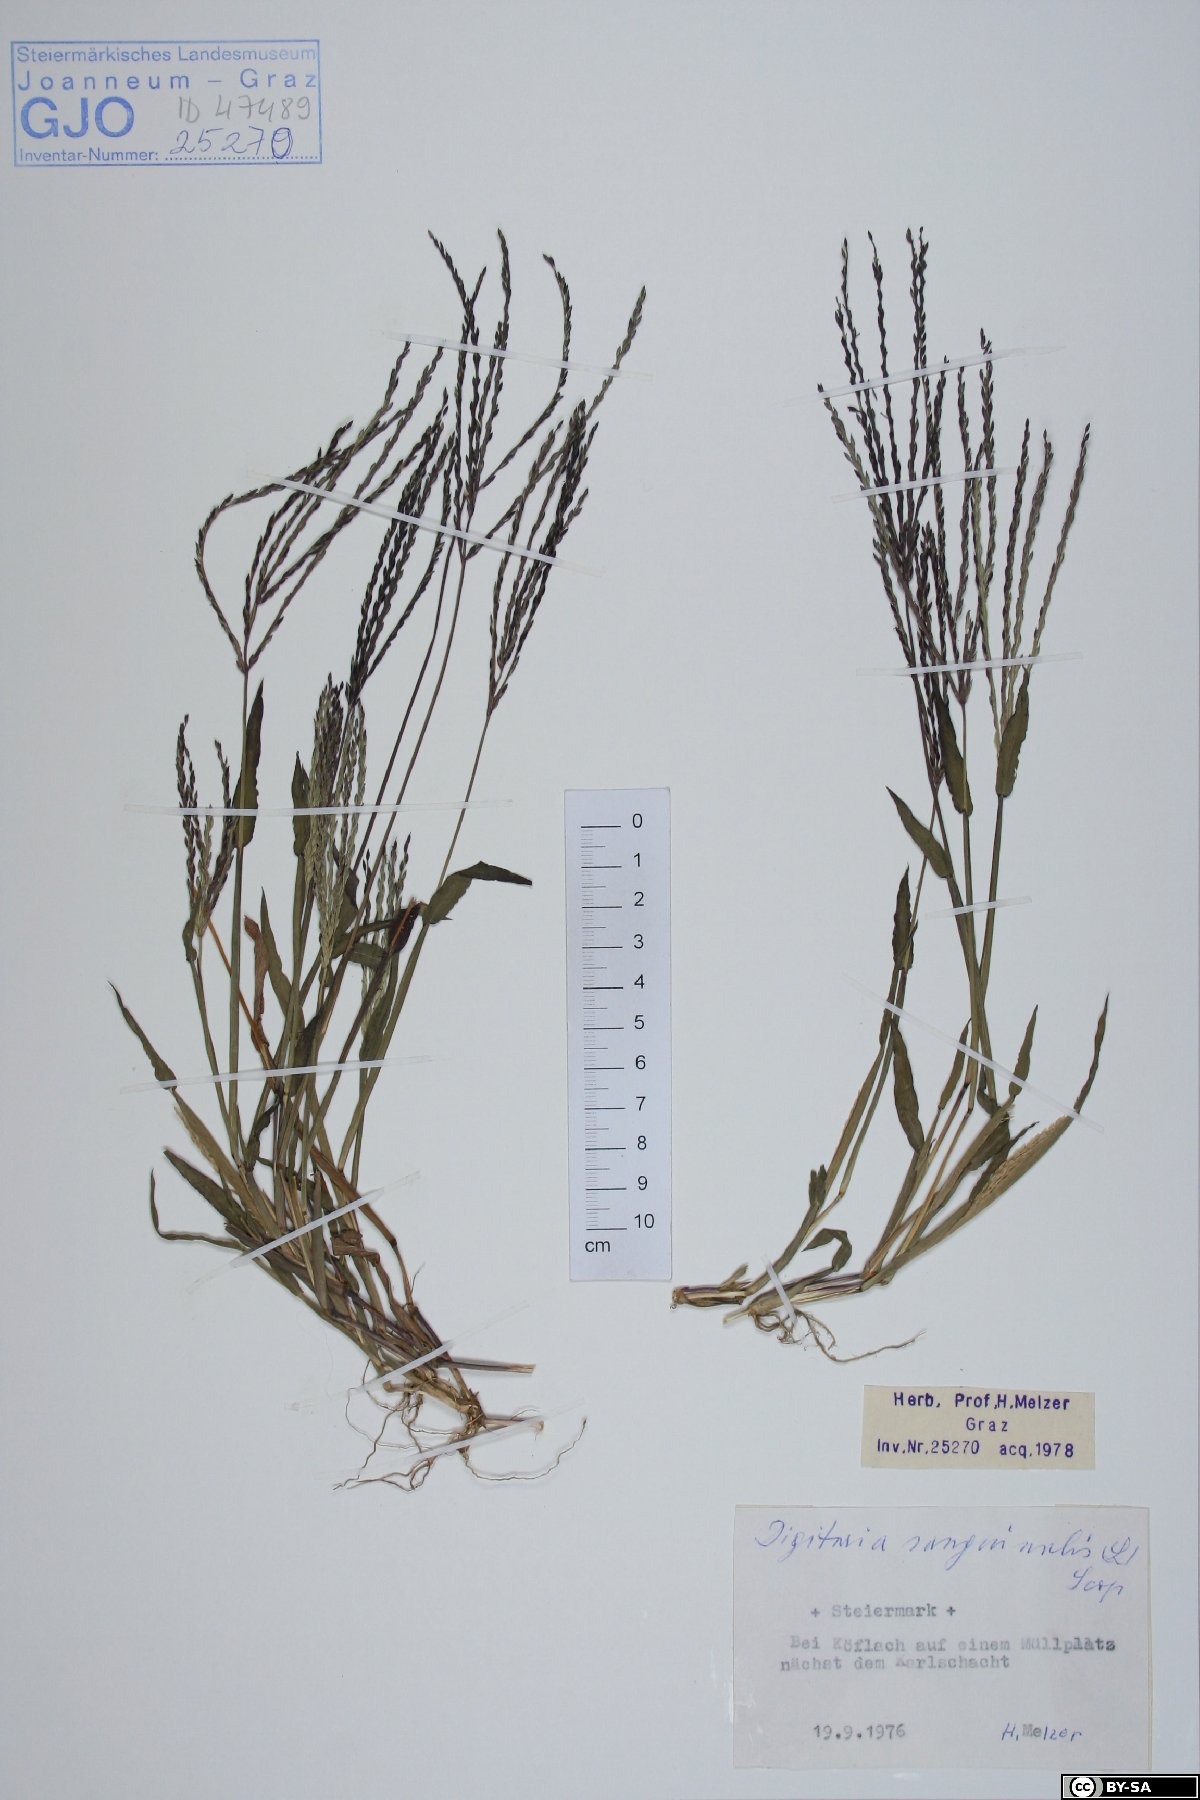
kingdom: Plantae
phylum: Tracheophyta
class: Liliopsida
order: Poales
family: Poaceae
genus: Digitaria
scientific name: Digitaria sanguinalis
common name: Hairy crabgrass
